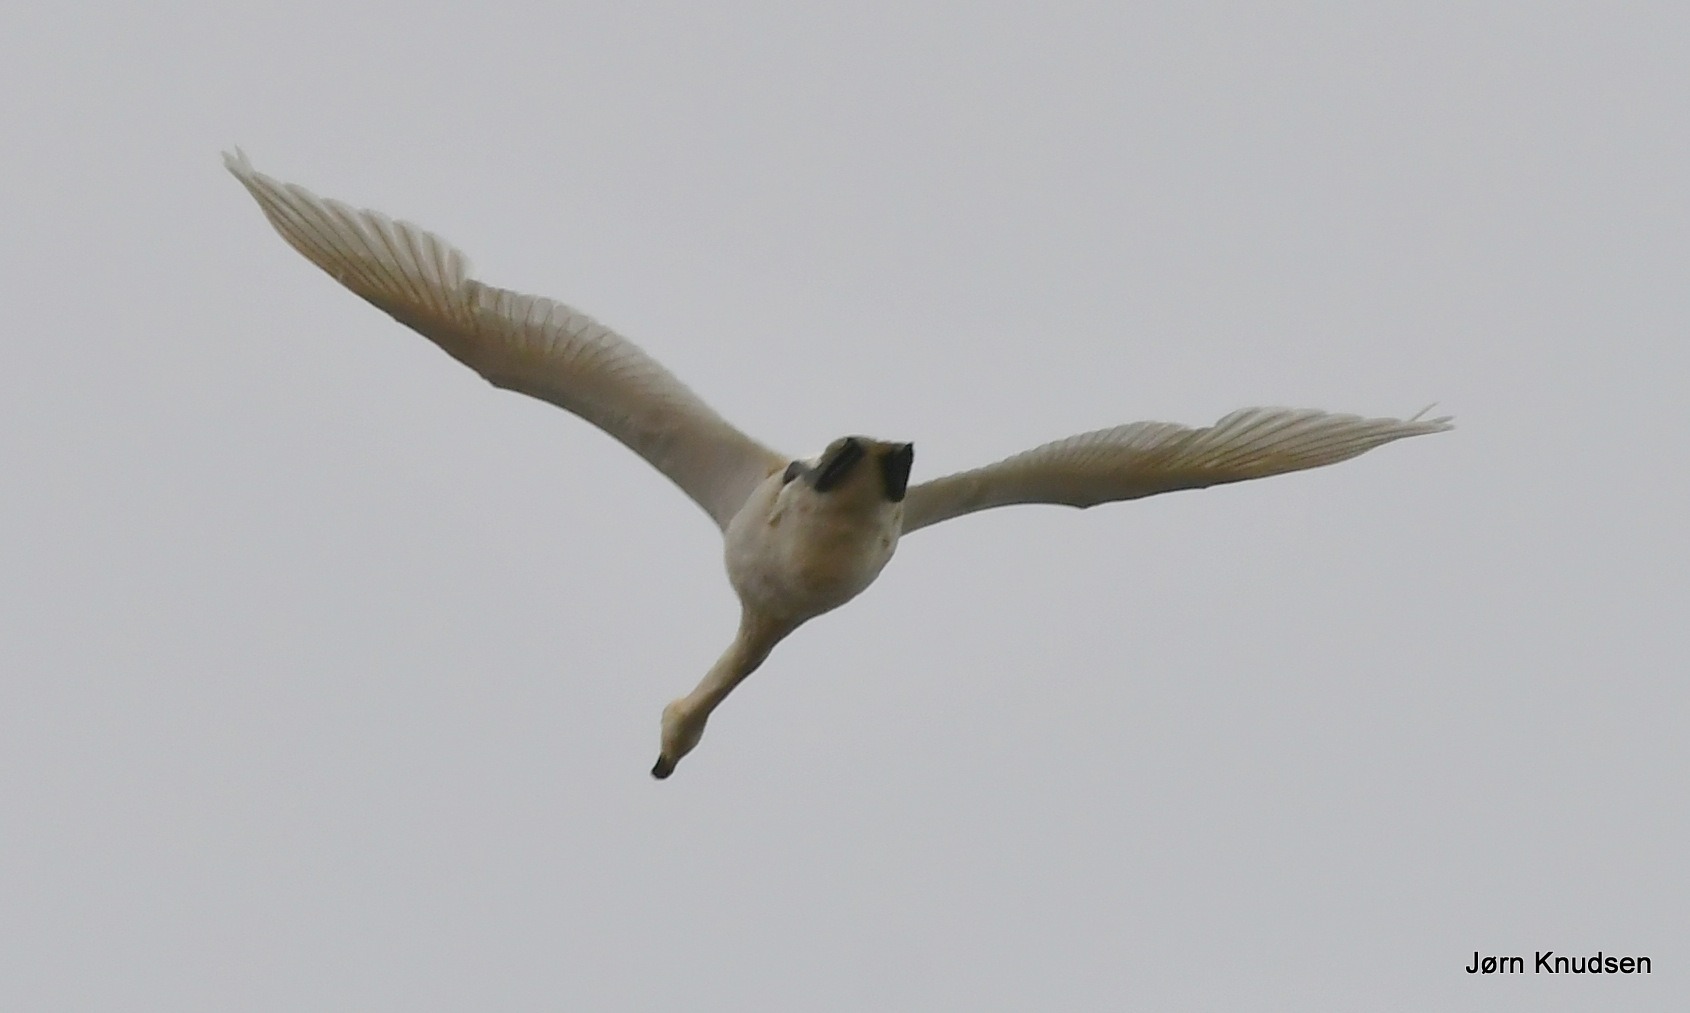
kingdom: Animalia
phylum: Chordata
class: Aves
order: Anseriformes
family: Anatidae
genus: Cygnus
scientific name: Cygnus cygnus
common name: Sangsvane
